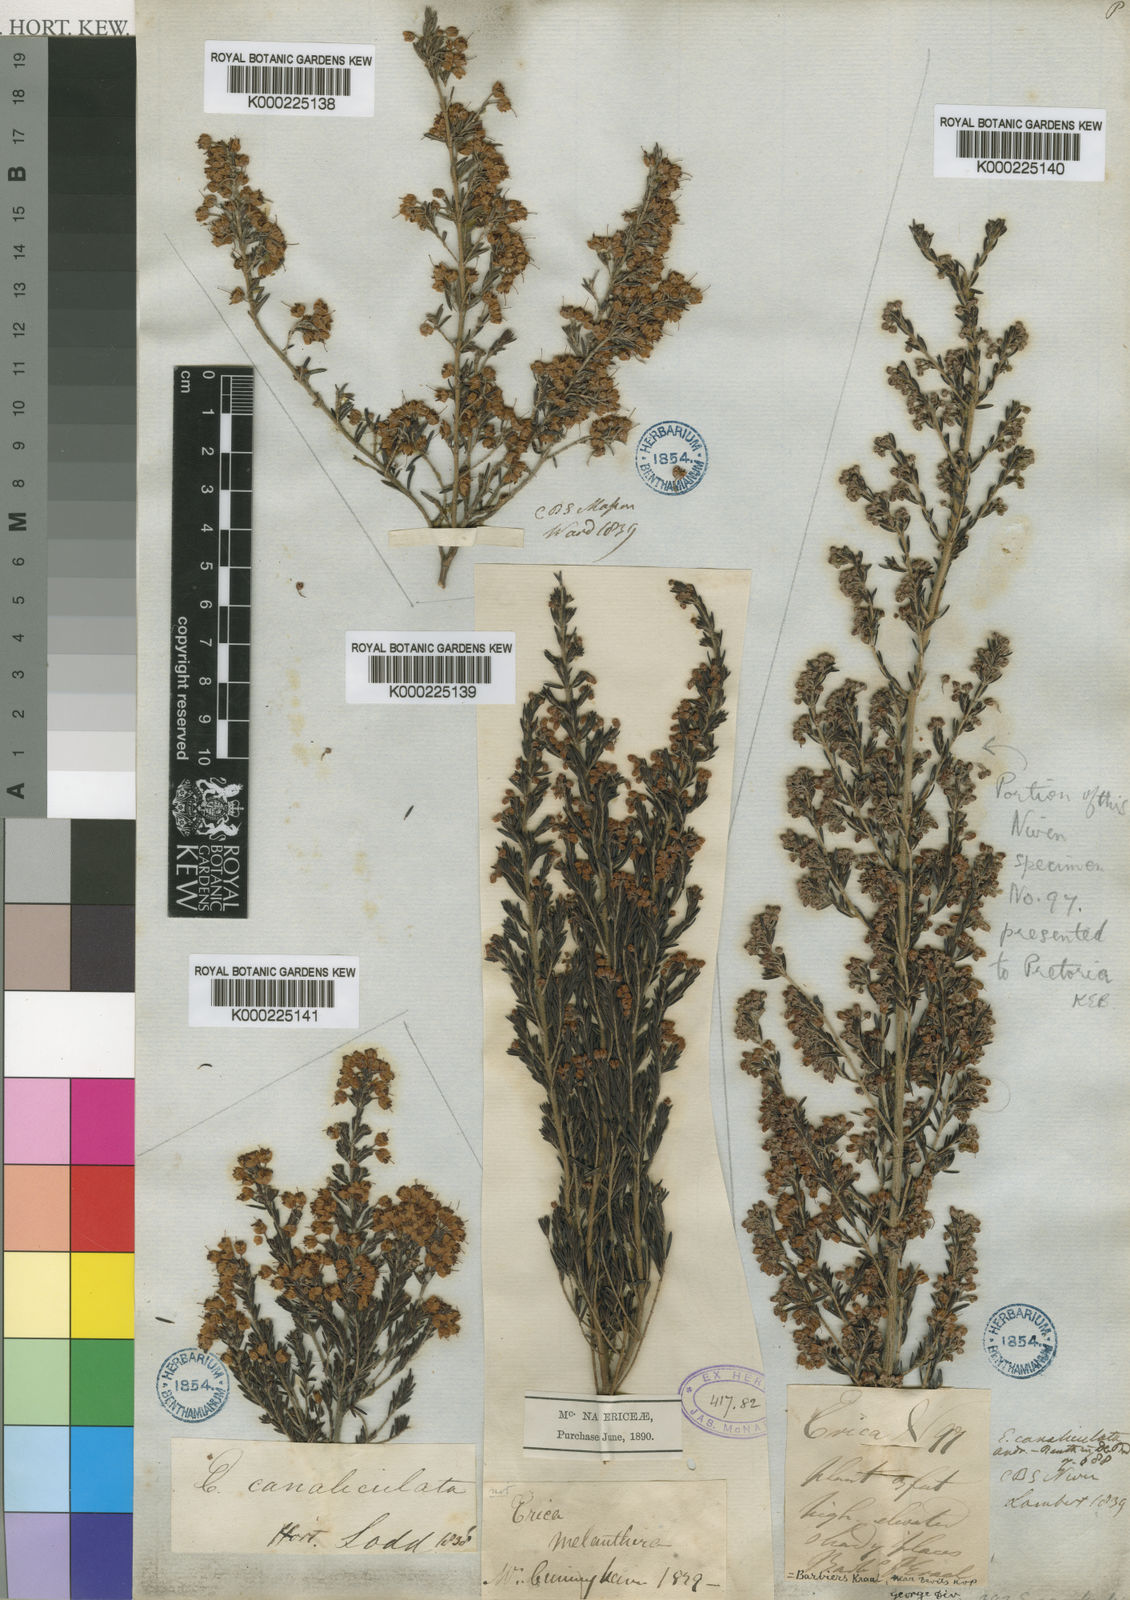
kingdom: Plantae
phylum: Tracheophyta
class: Magnoliopsida
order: Ericales
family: Ericaceae
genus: Erica
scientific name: Erica canaliculata
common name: Hairy grey heather
